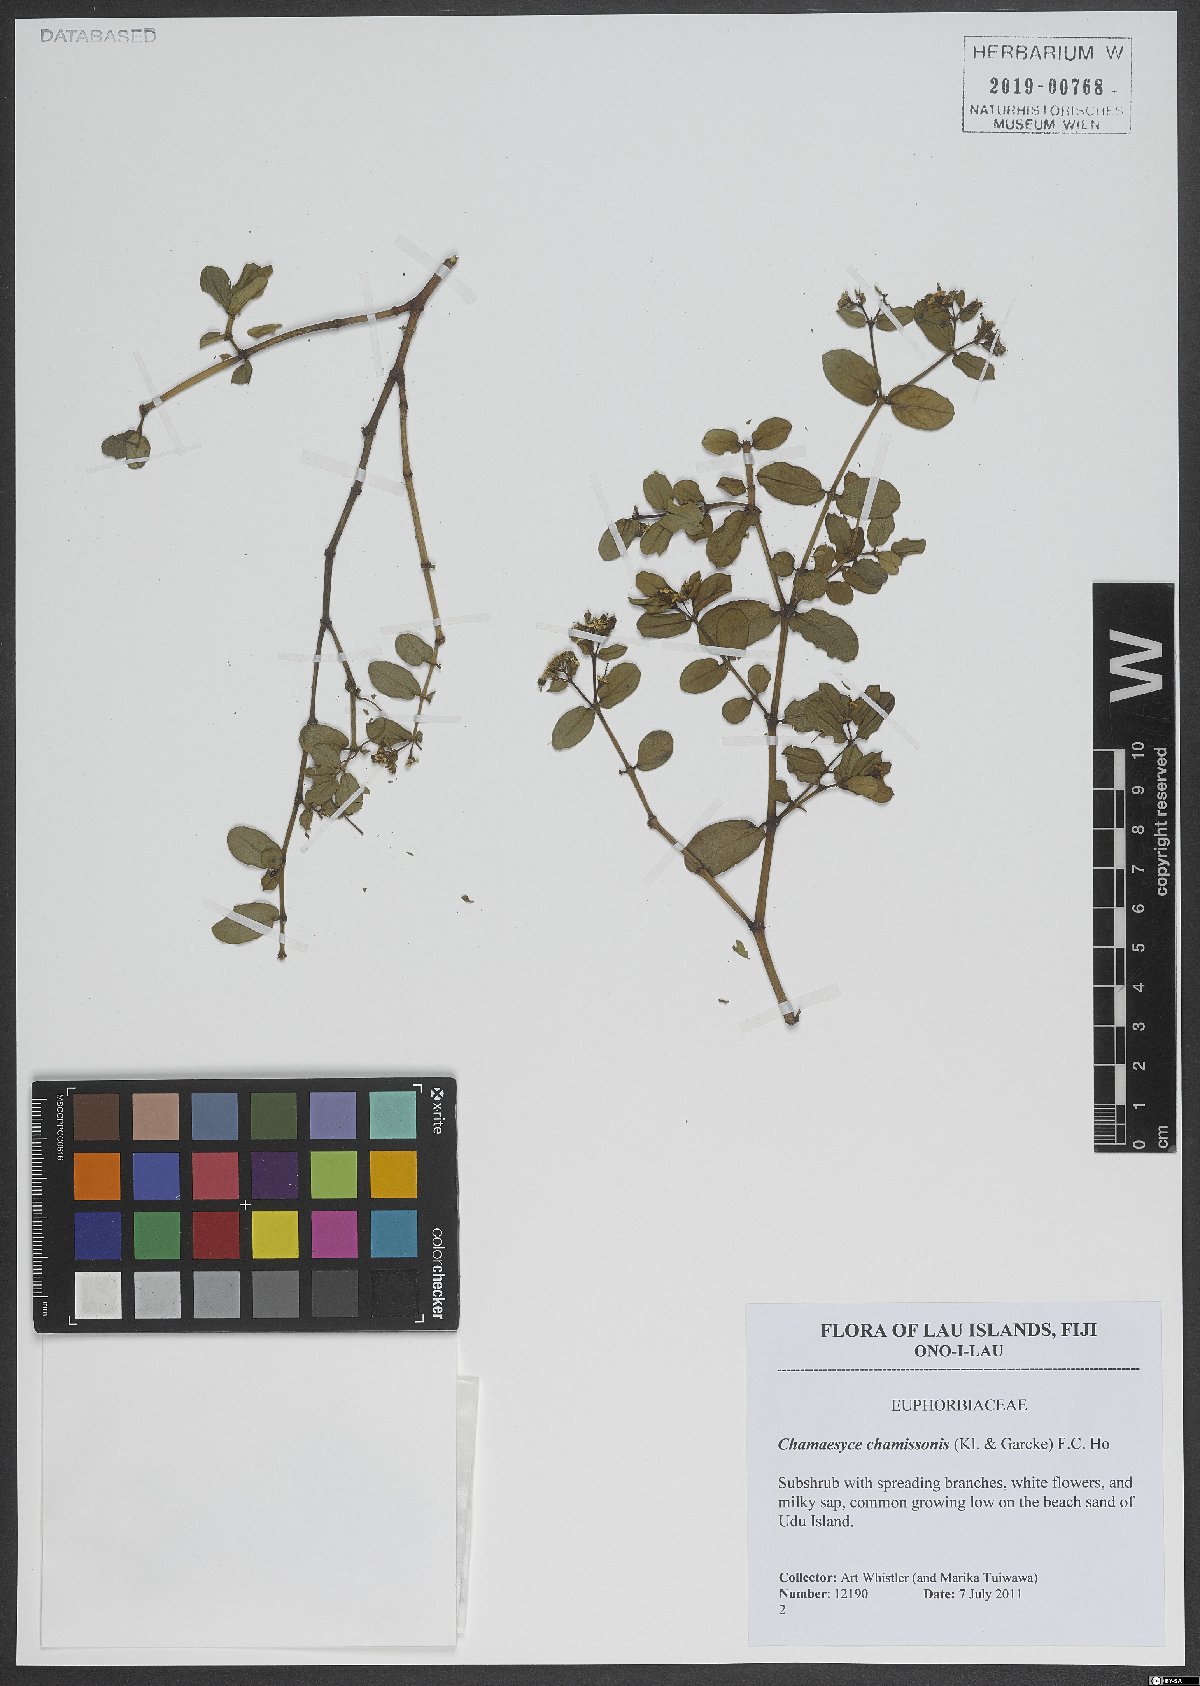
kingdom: Plantae
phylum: Tracheophyta
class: Magnoliopsida
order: Malpighiales
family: Euphorbiaceae
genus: Euphorbia
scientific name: Euphorbia chamissonis
